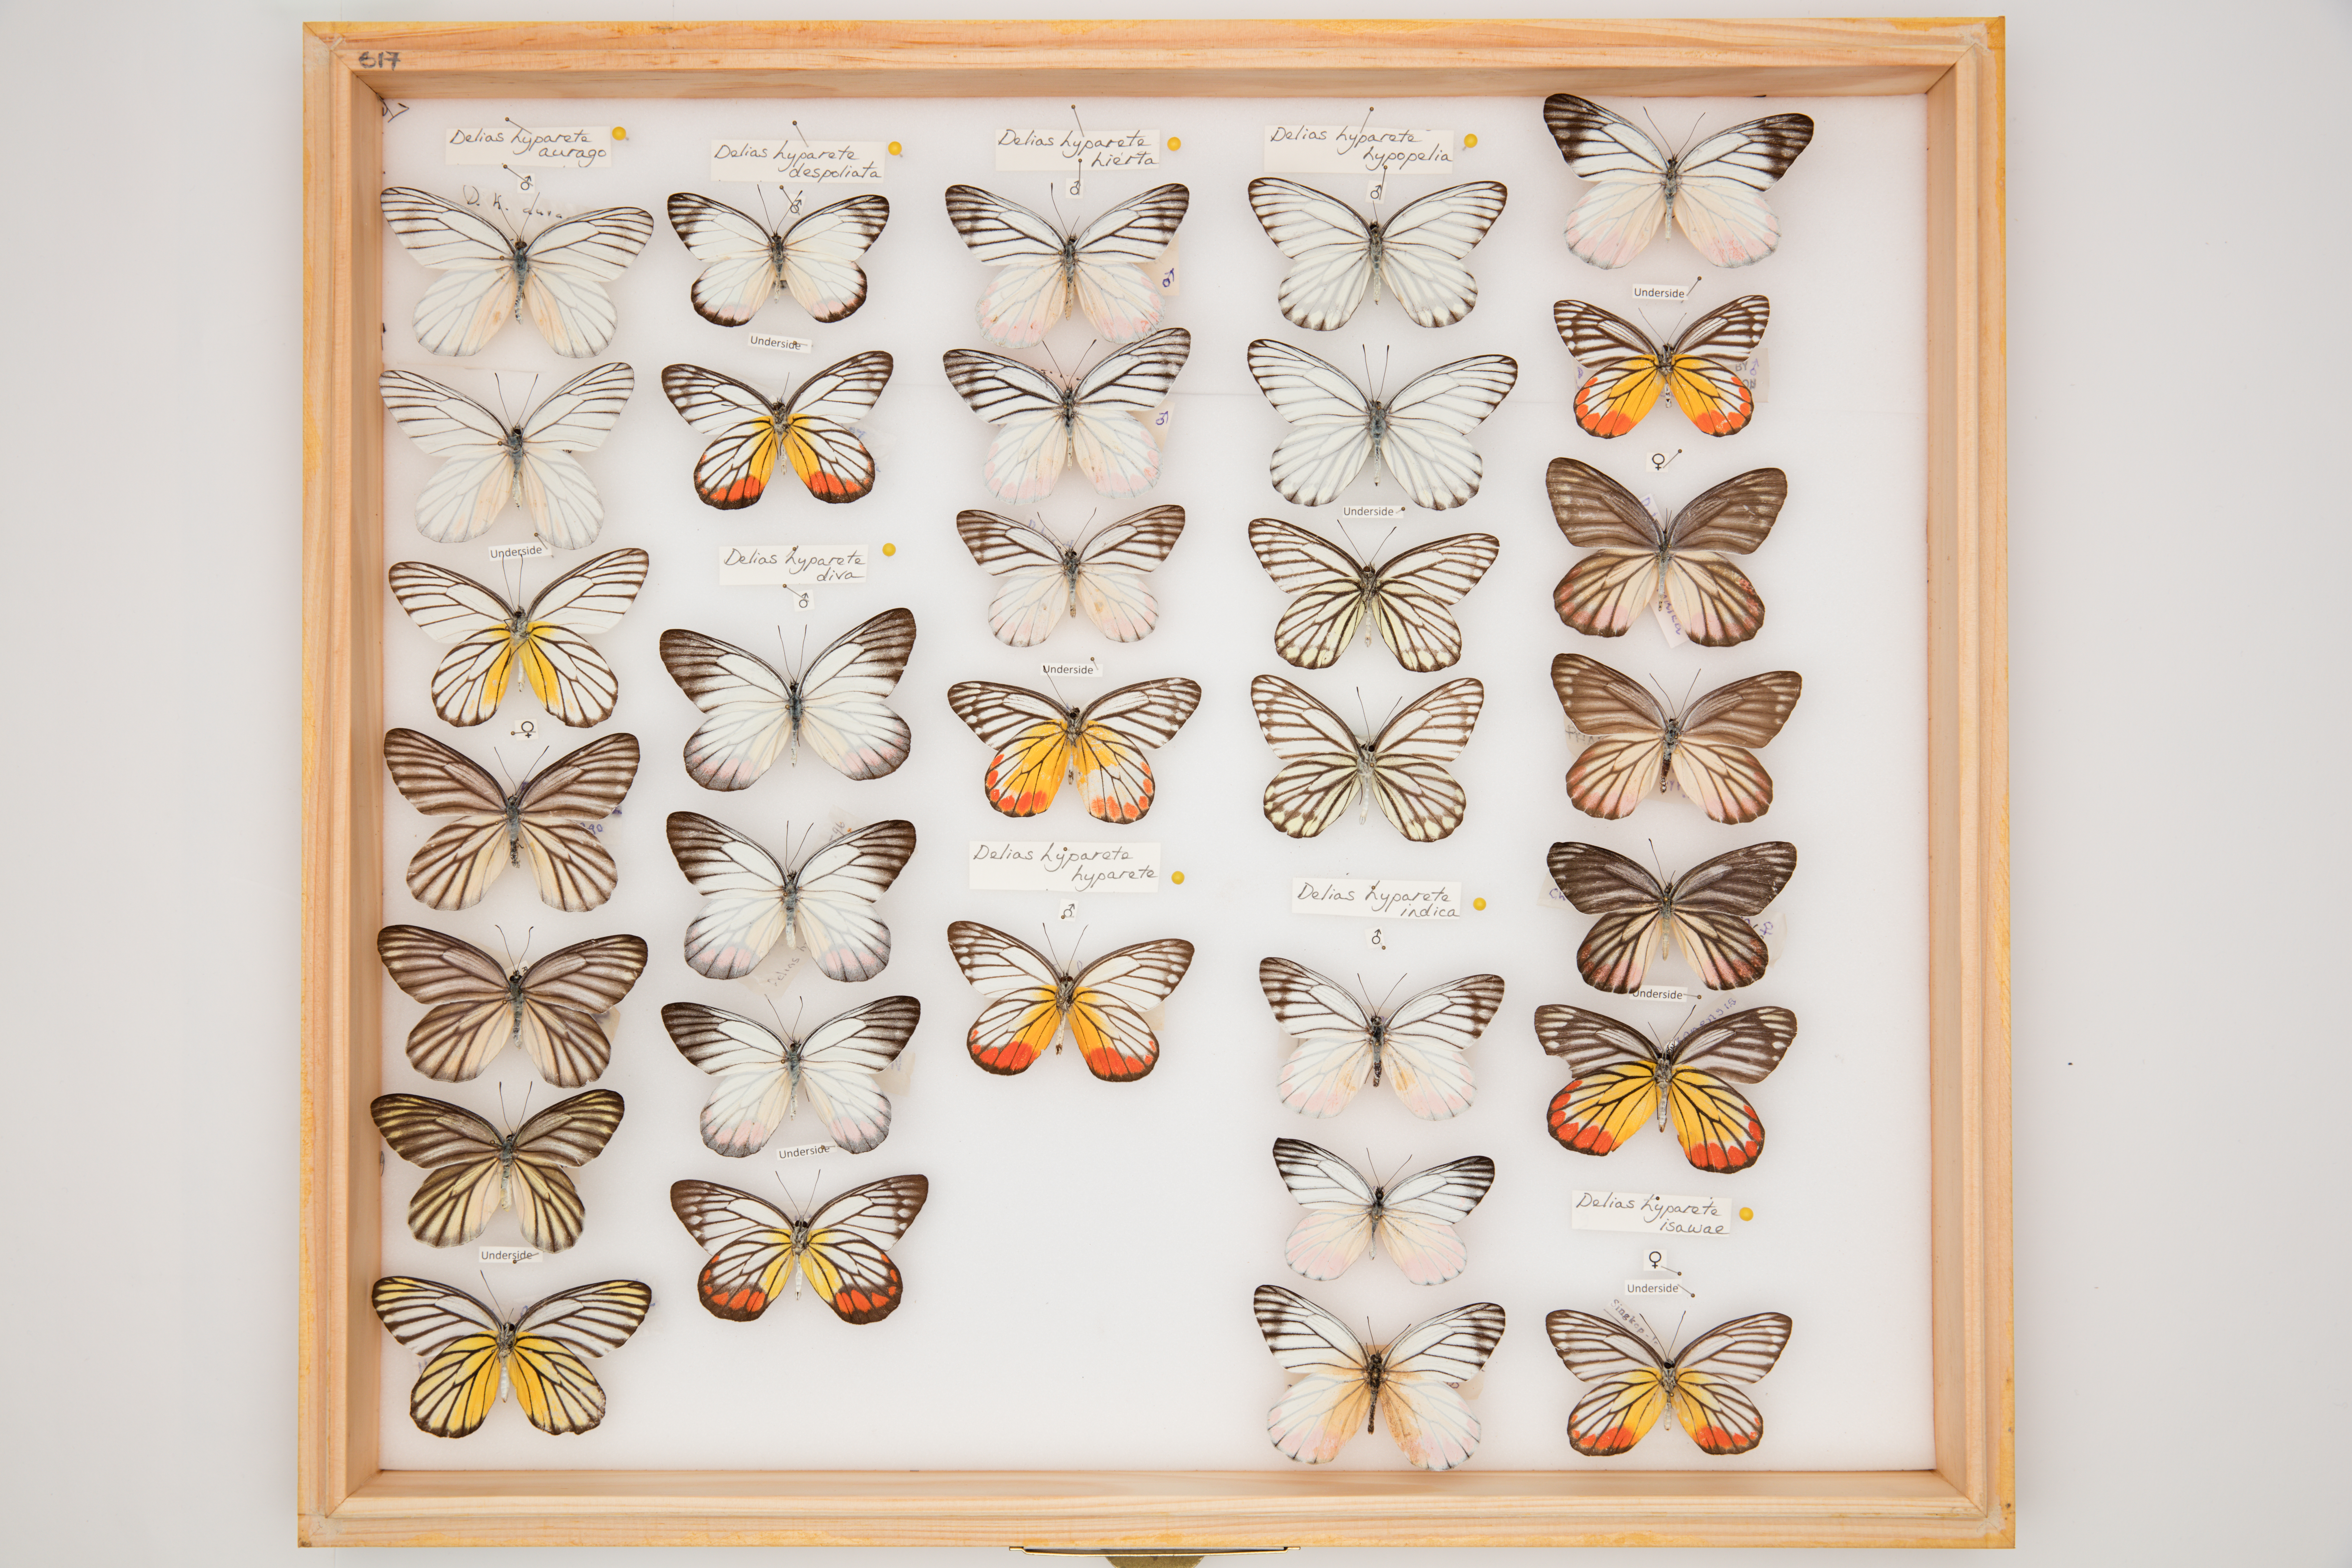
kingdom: Animalia
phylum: Arthropoda
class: Insecta
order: Lepidoptera
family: Pieridae
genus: Delias
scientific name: Delias hyparete
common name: Painted jezebel
